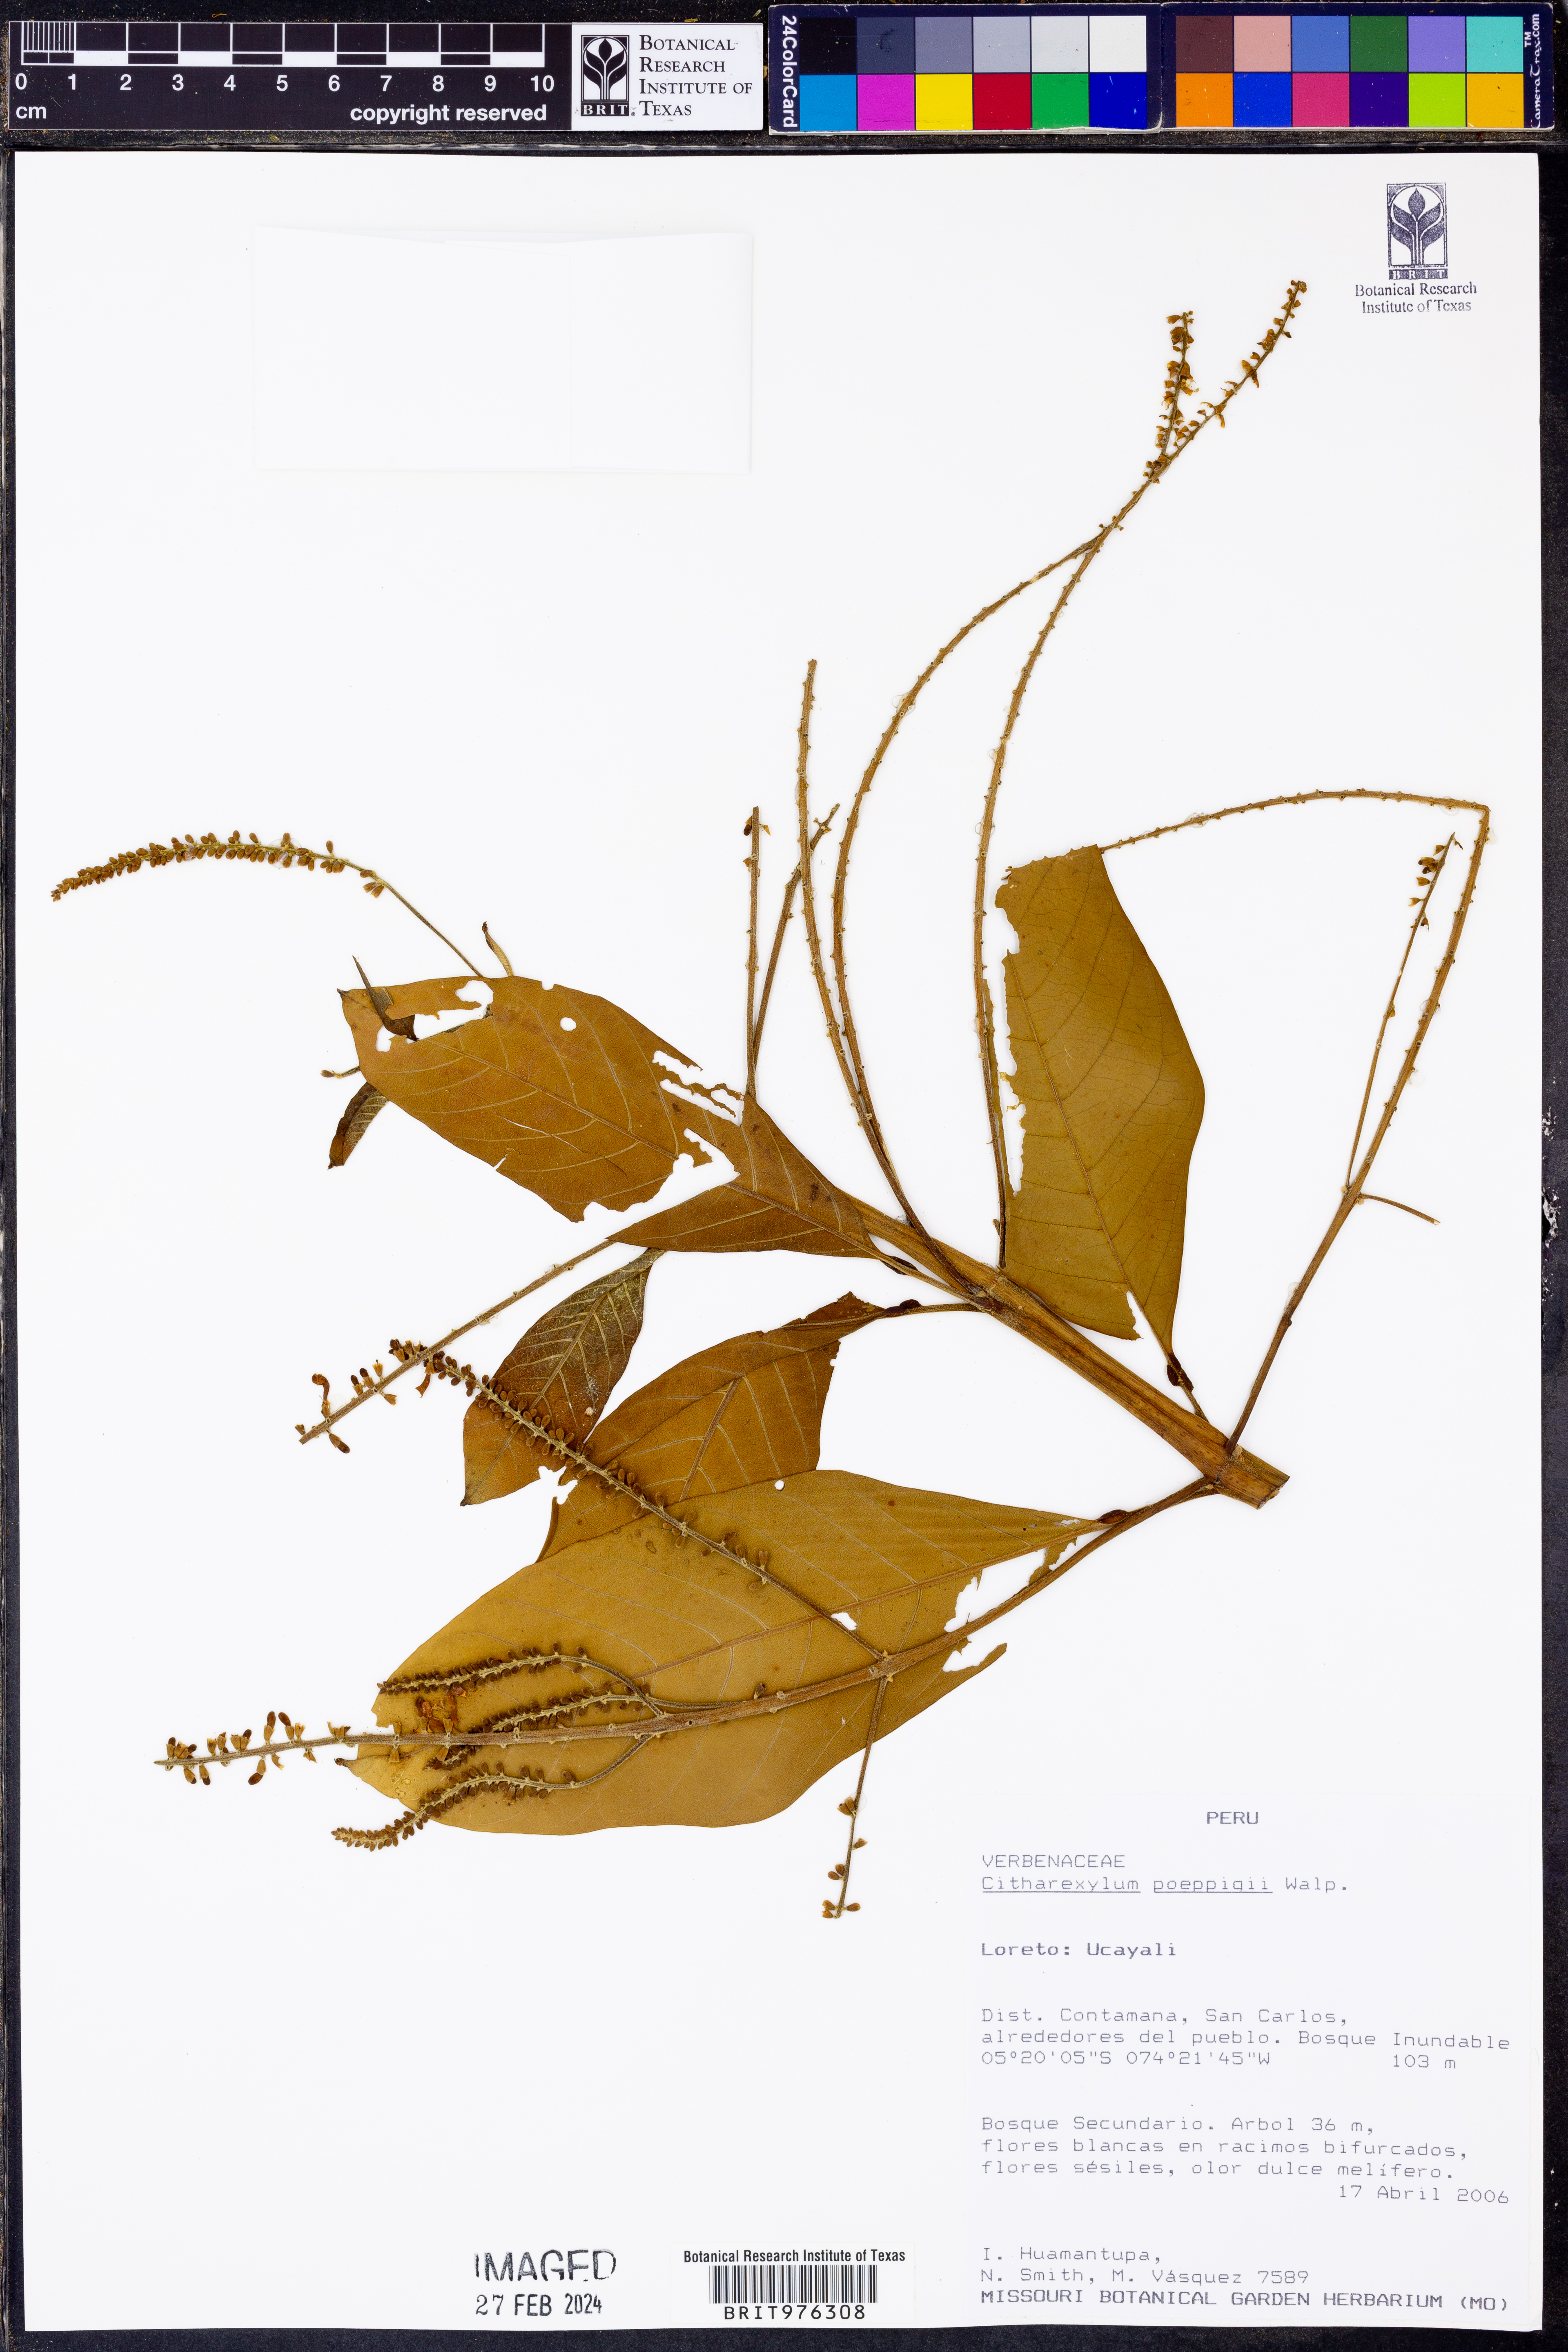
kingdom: Plantae
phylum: Tracheophyta
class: Magnoliopsida
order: Lamiales
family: Verbenaceae
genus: Citharexylum
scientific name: Citharexylum
